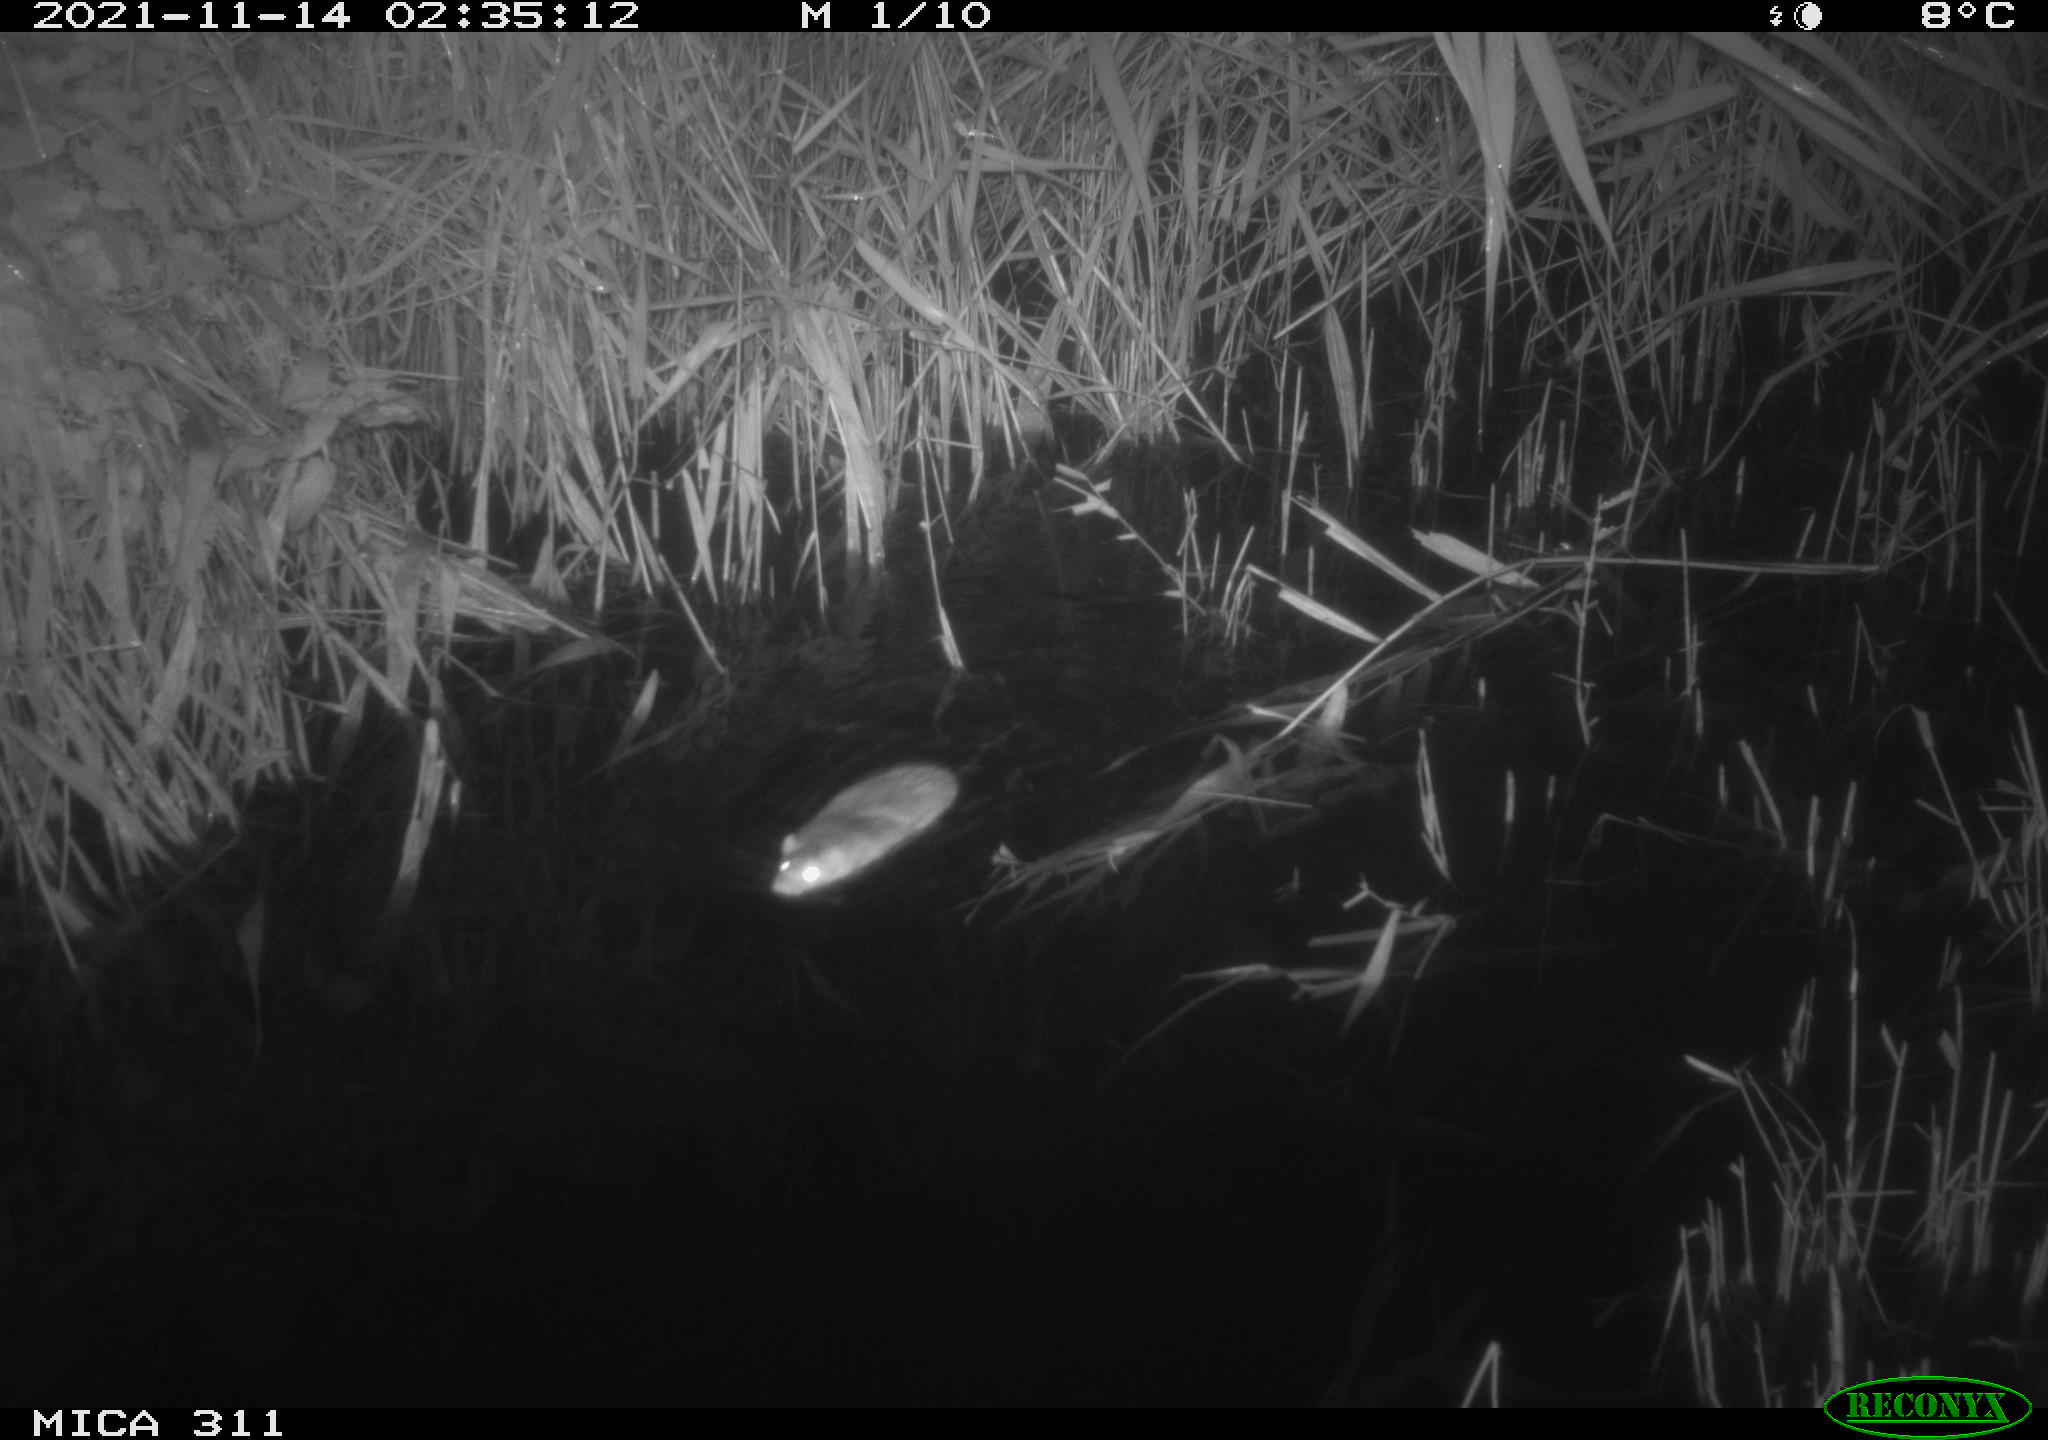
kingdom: Animalia
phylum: Chordata
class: Mammalia
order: Rodentia
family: Muridae
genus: Rattus
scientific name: Rattus norvegicus
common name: Brown rat
